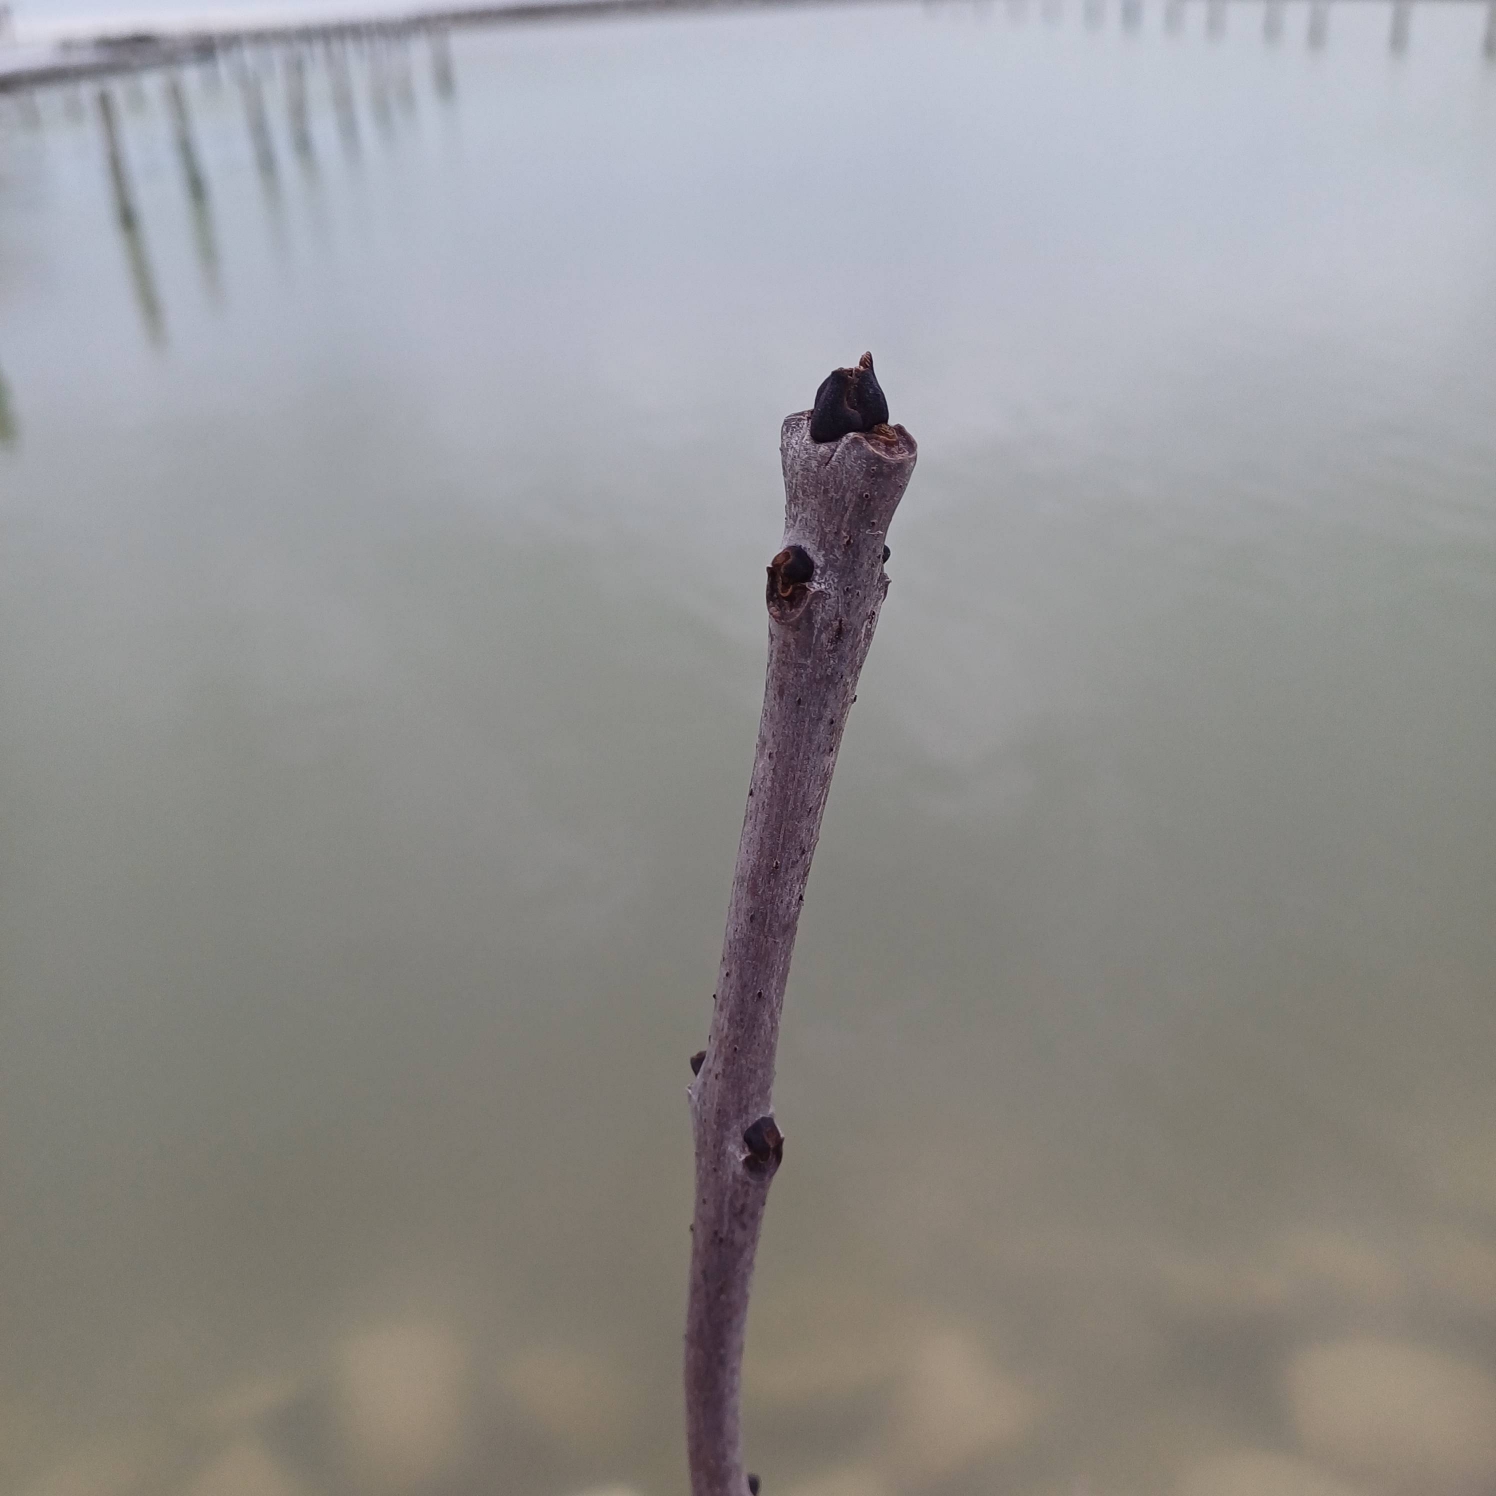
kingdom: Plantae
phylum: Tracheophyta
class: Magnoliopsida
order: Lamiales
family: Oleaceae
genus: Fraxinus
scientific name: Fraxinus excelsior
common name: Ask
